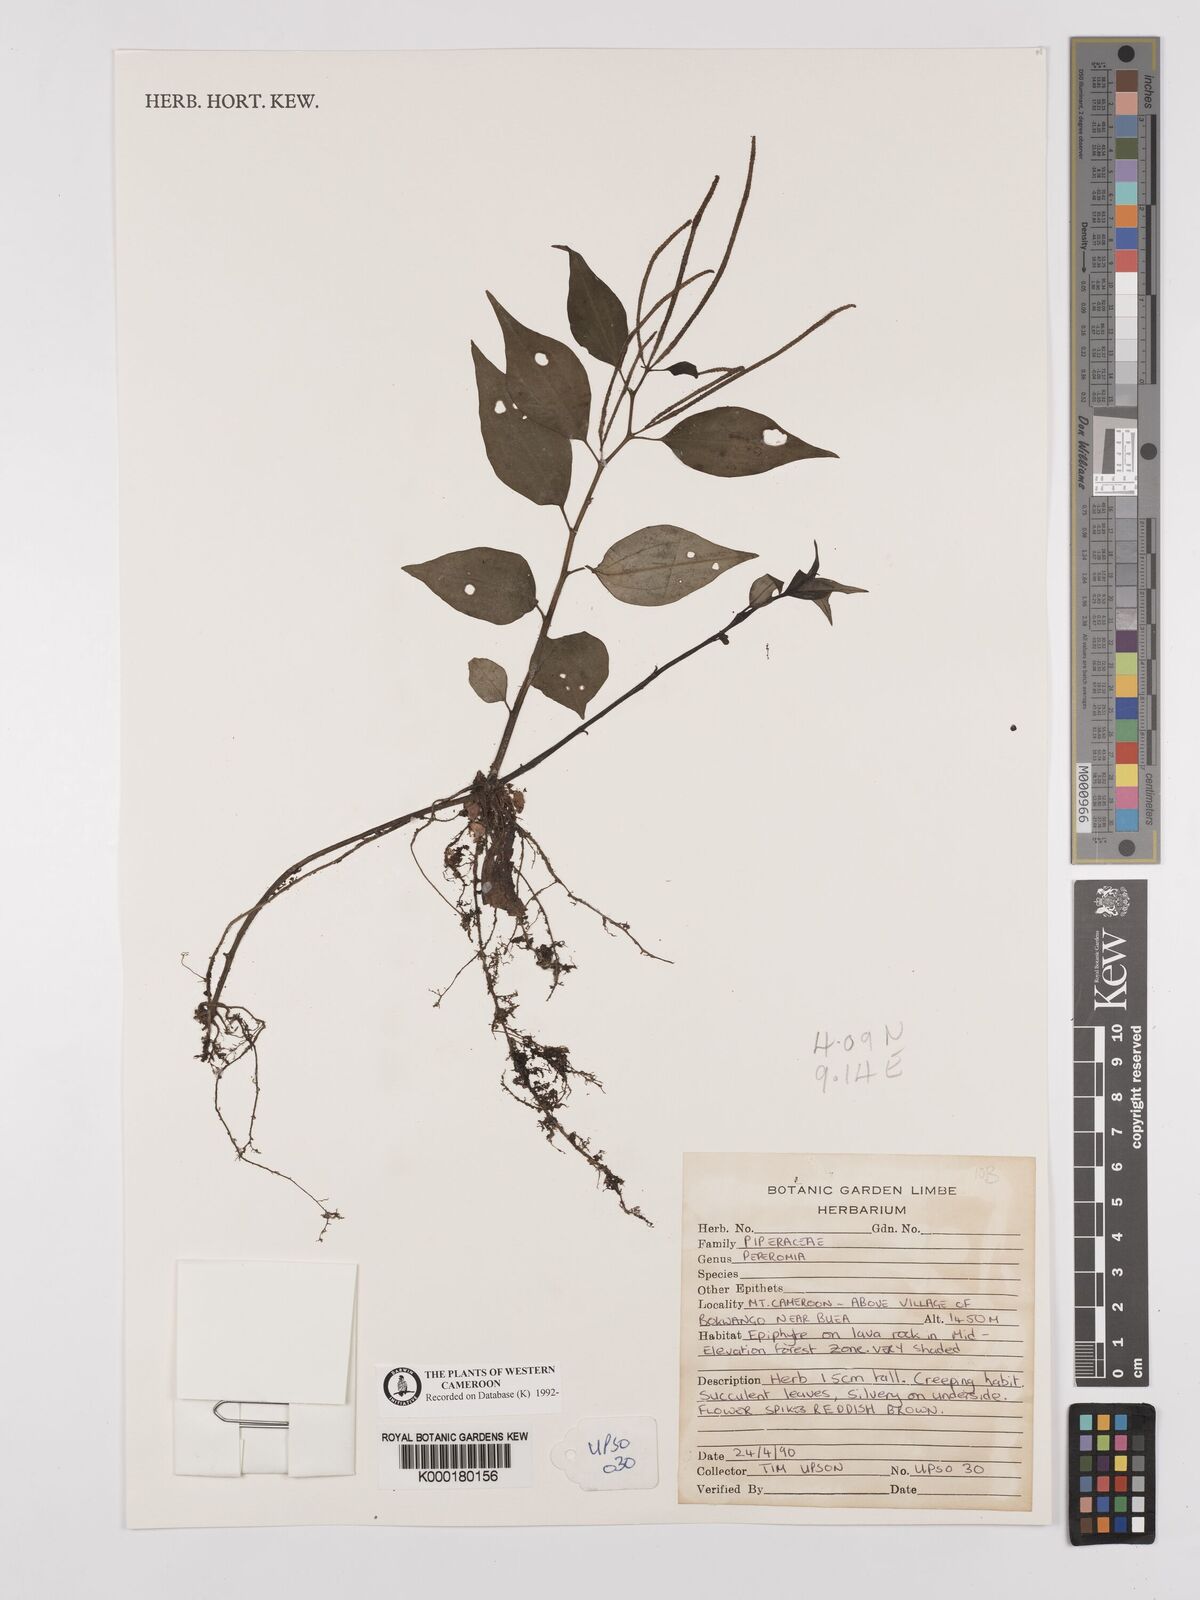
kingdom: Plantae
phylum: Tracheophyta
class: Magnoliopsida
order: Piperales
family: Piperaceae
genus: Peperomia
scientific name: Peperomia fernandopoiana
